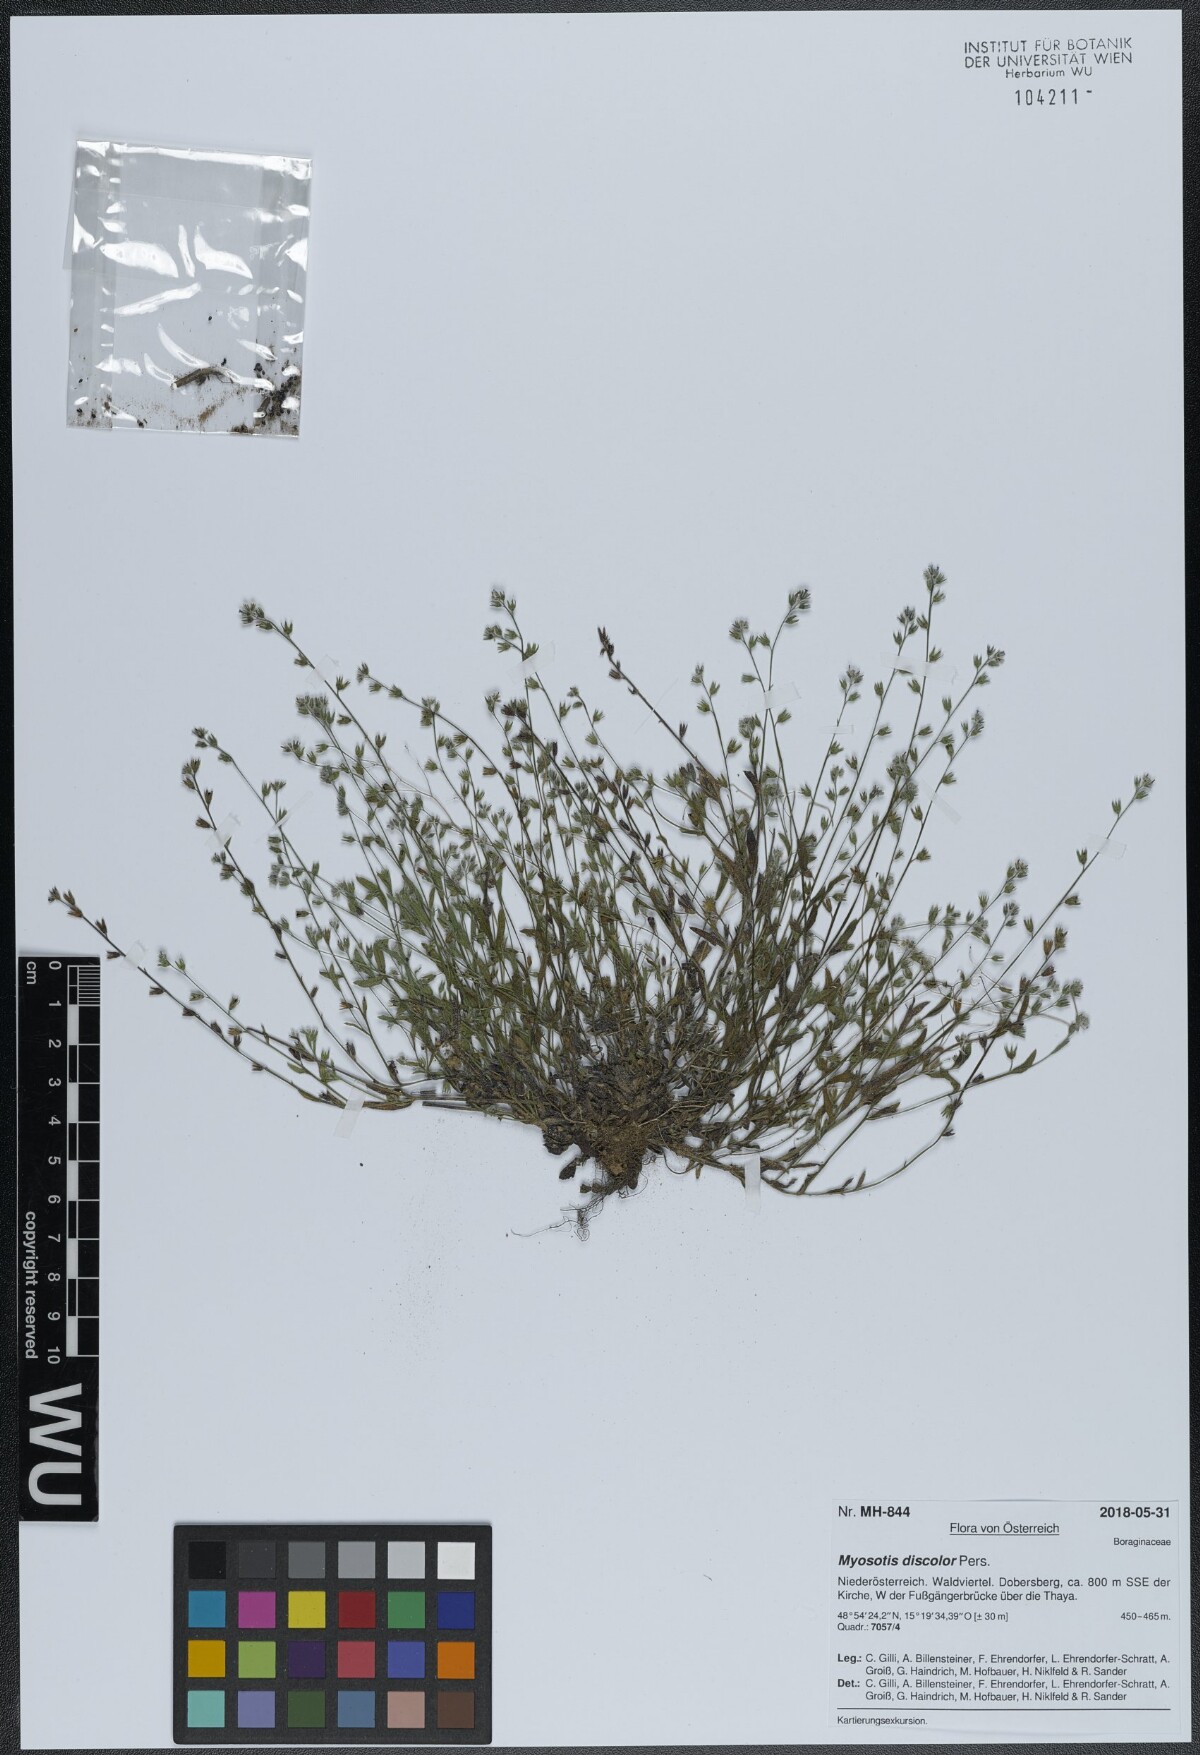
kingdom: Plantae
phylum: Tracheophyta
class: Magnoliopsida
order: Boraginales
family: Boraginaceae
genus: Myosotis
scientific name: Myosotis discolor
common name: Changing forget-me-not
